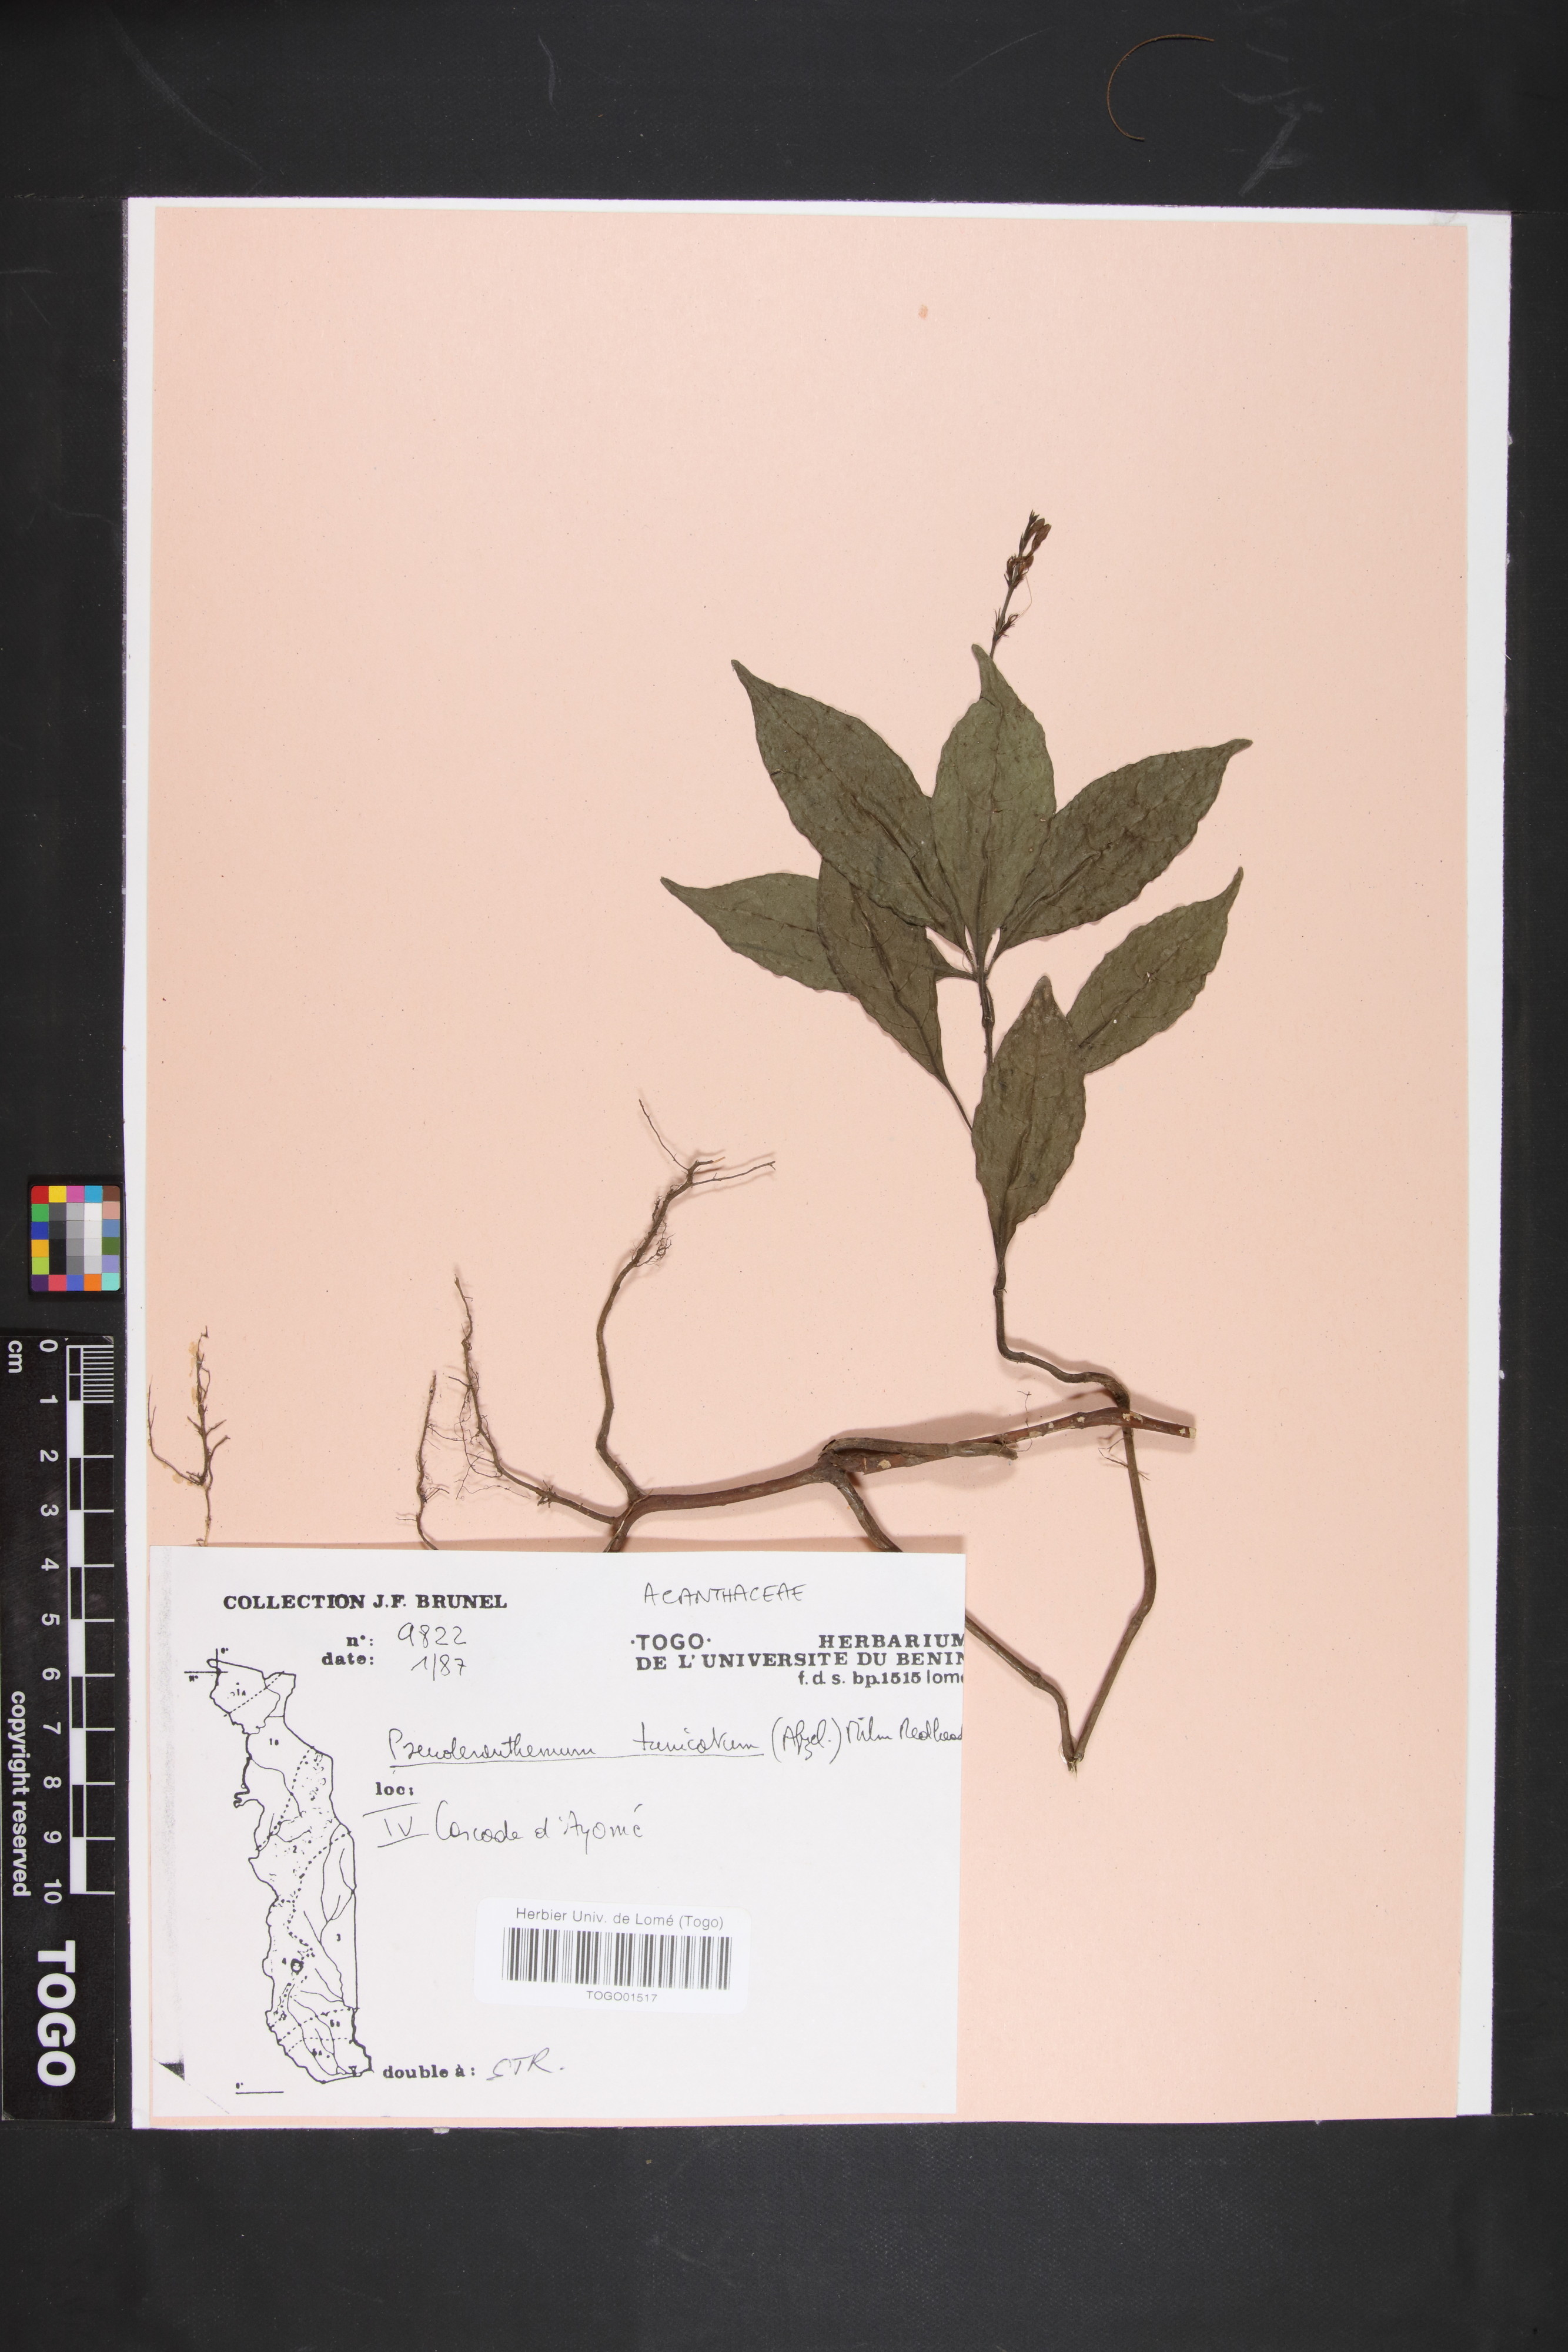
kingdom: Plantae
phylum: Tracheophyta
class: Magnoliopsida
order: Lamiales
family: Acanthaceae
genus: Pseuderanthemum
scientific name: Pseuderanthemum tunicatum
